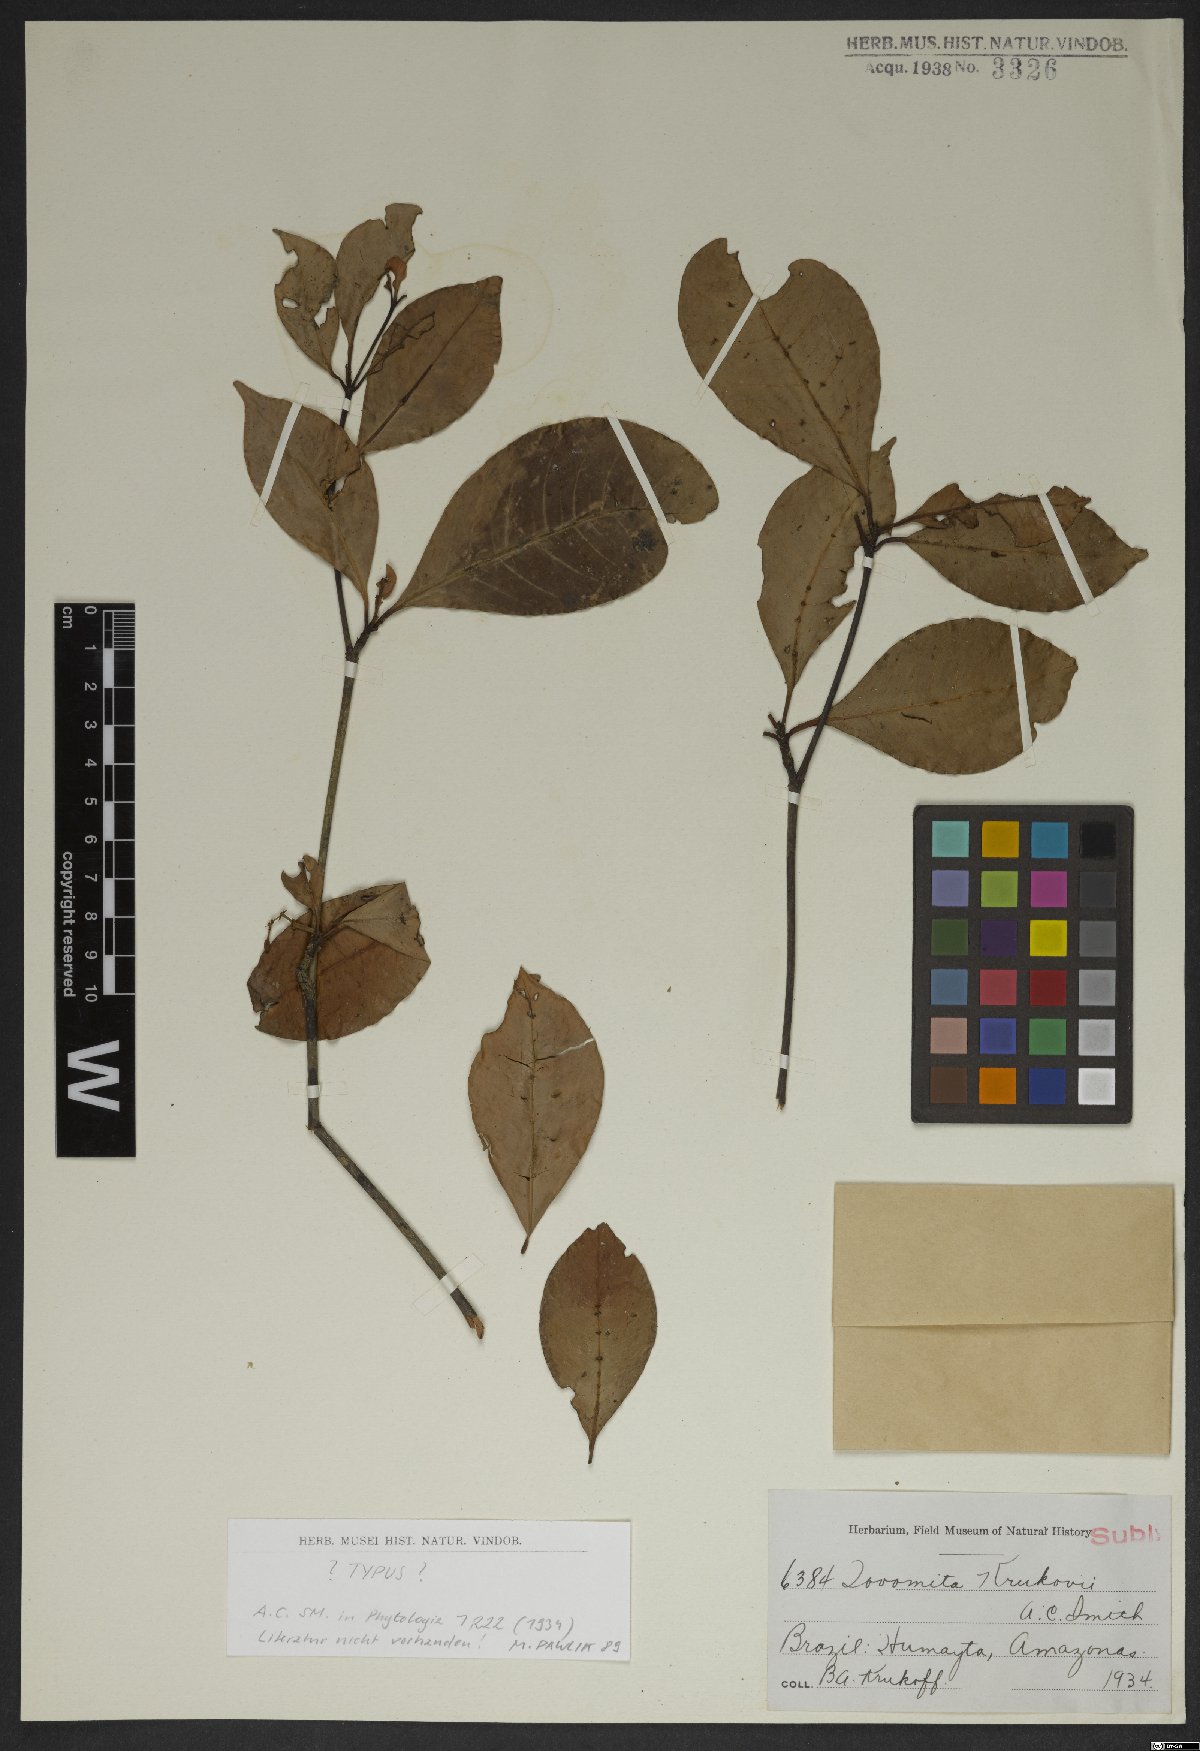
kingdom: Plantae
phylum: Tracheophyta
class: Magnoliopsida
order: Malpighiales
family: Clusiaceae
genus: Tovomita
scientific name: Tovomita krukovii
